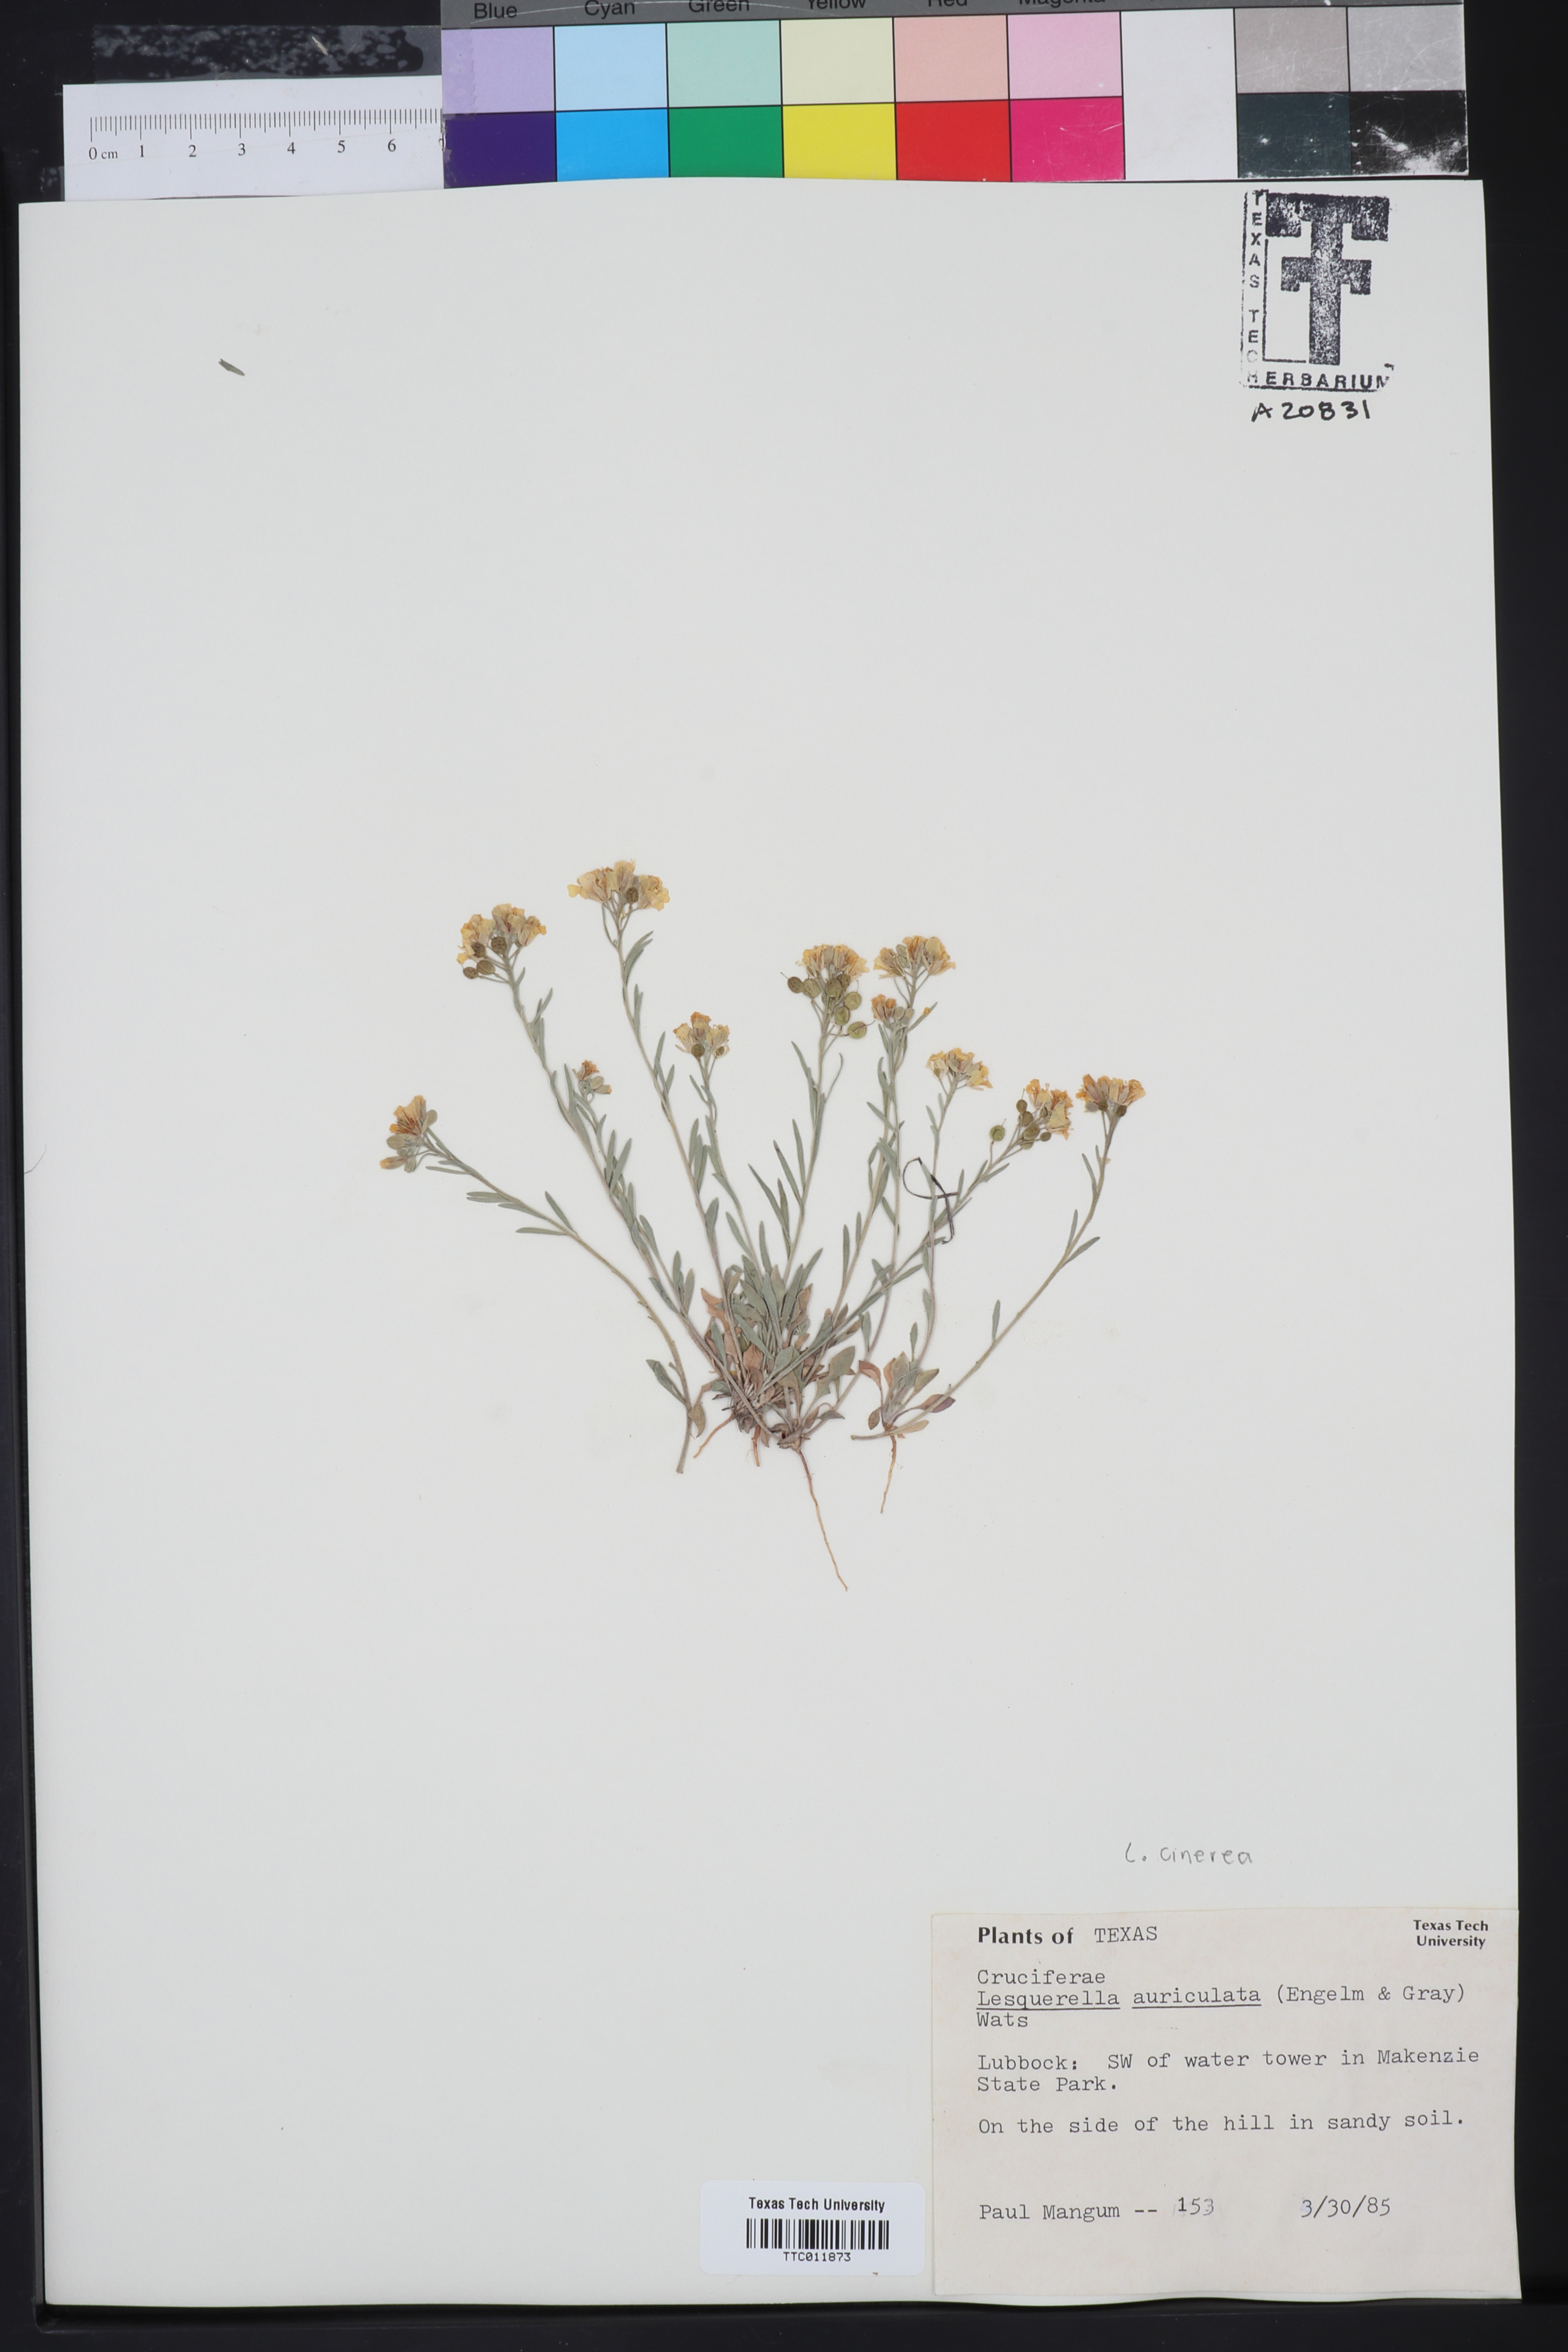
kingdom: Plantae
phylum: Tracheophyta
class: Magnoliopsida
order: Brassicales
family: Brassicaceae
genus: Paysonia
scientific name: Paysonia auriculata
